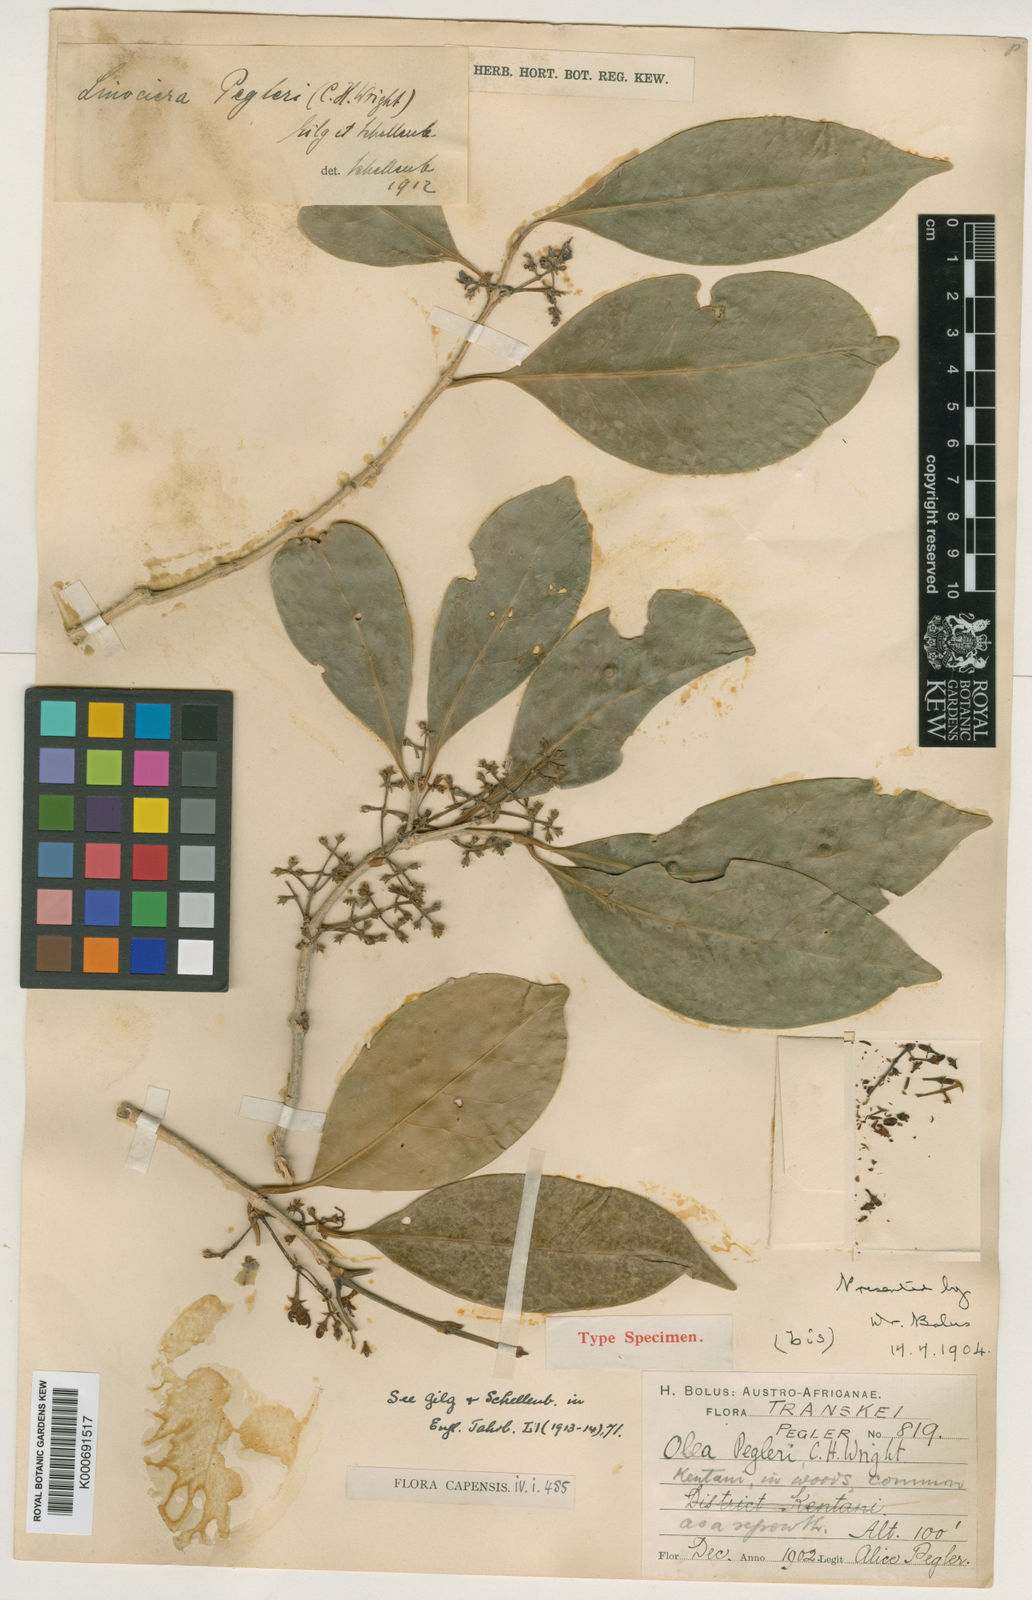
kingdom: Plantae
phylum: Tracheophyta
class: Magnoliopsida
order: Lamiales
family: Oleaceae
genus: Noronhia
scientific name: Noronhia peglerae
